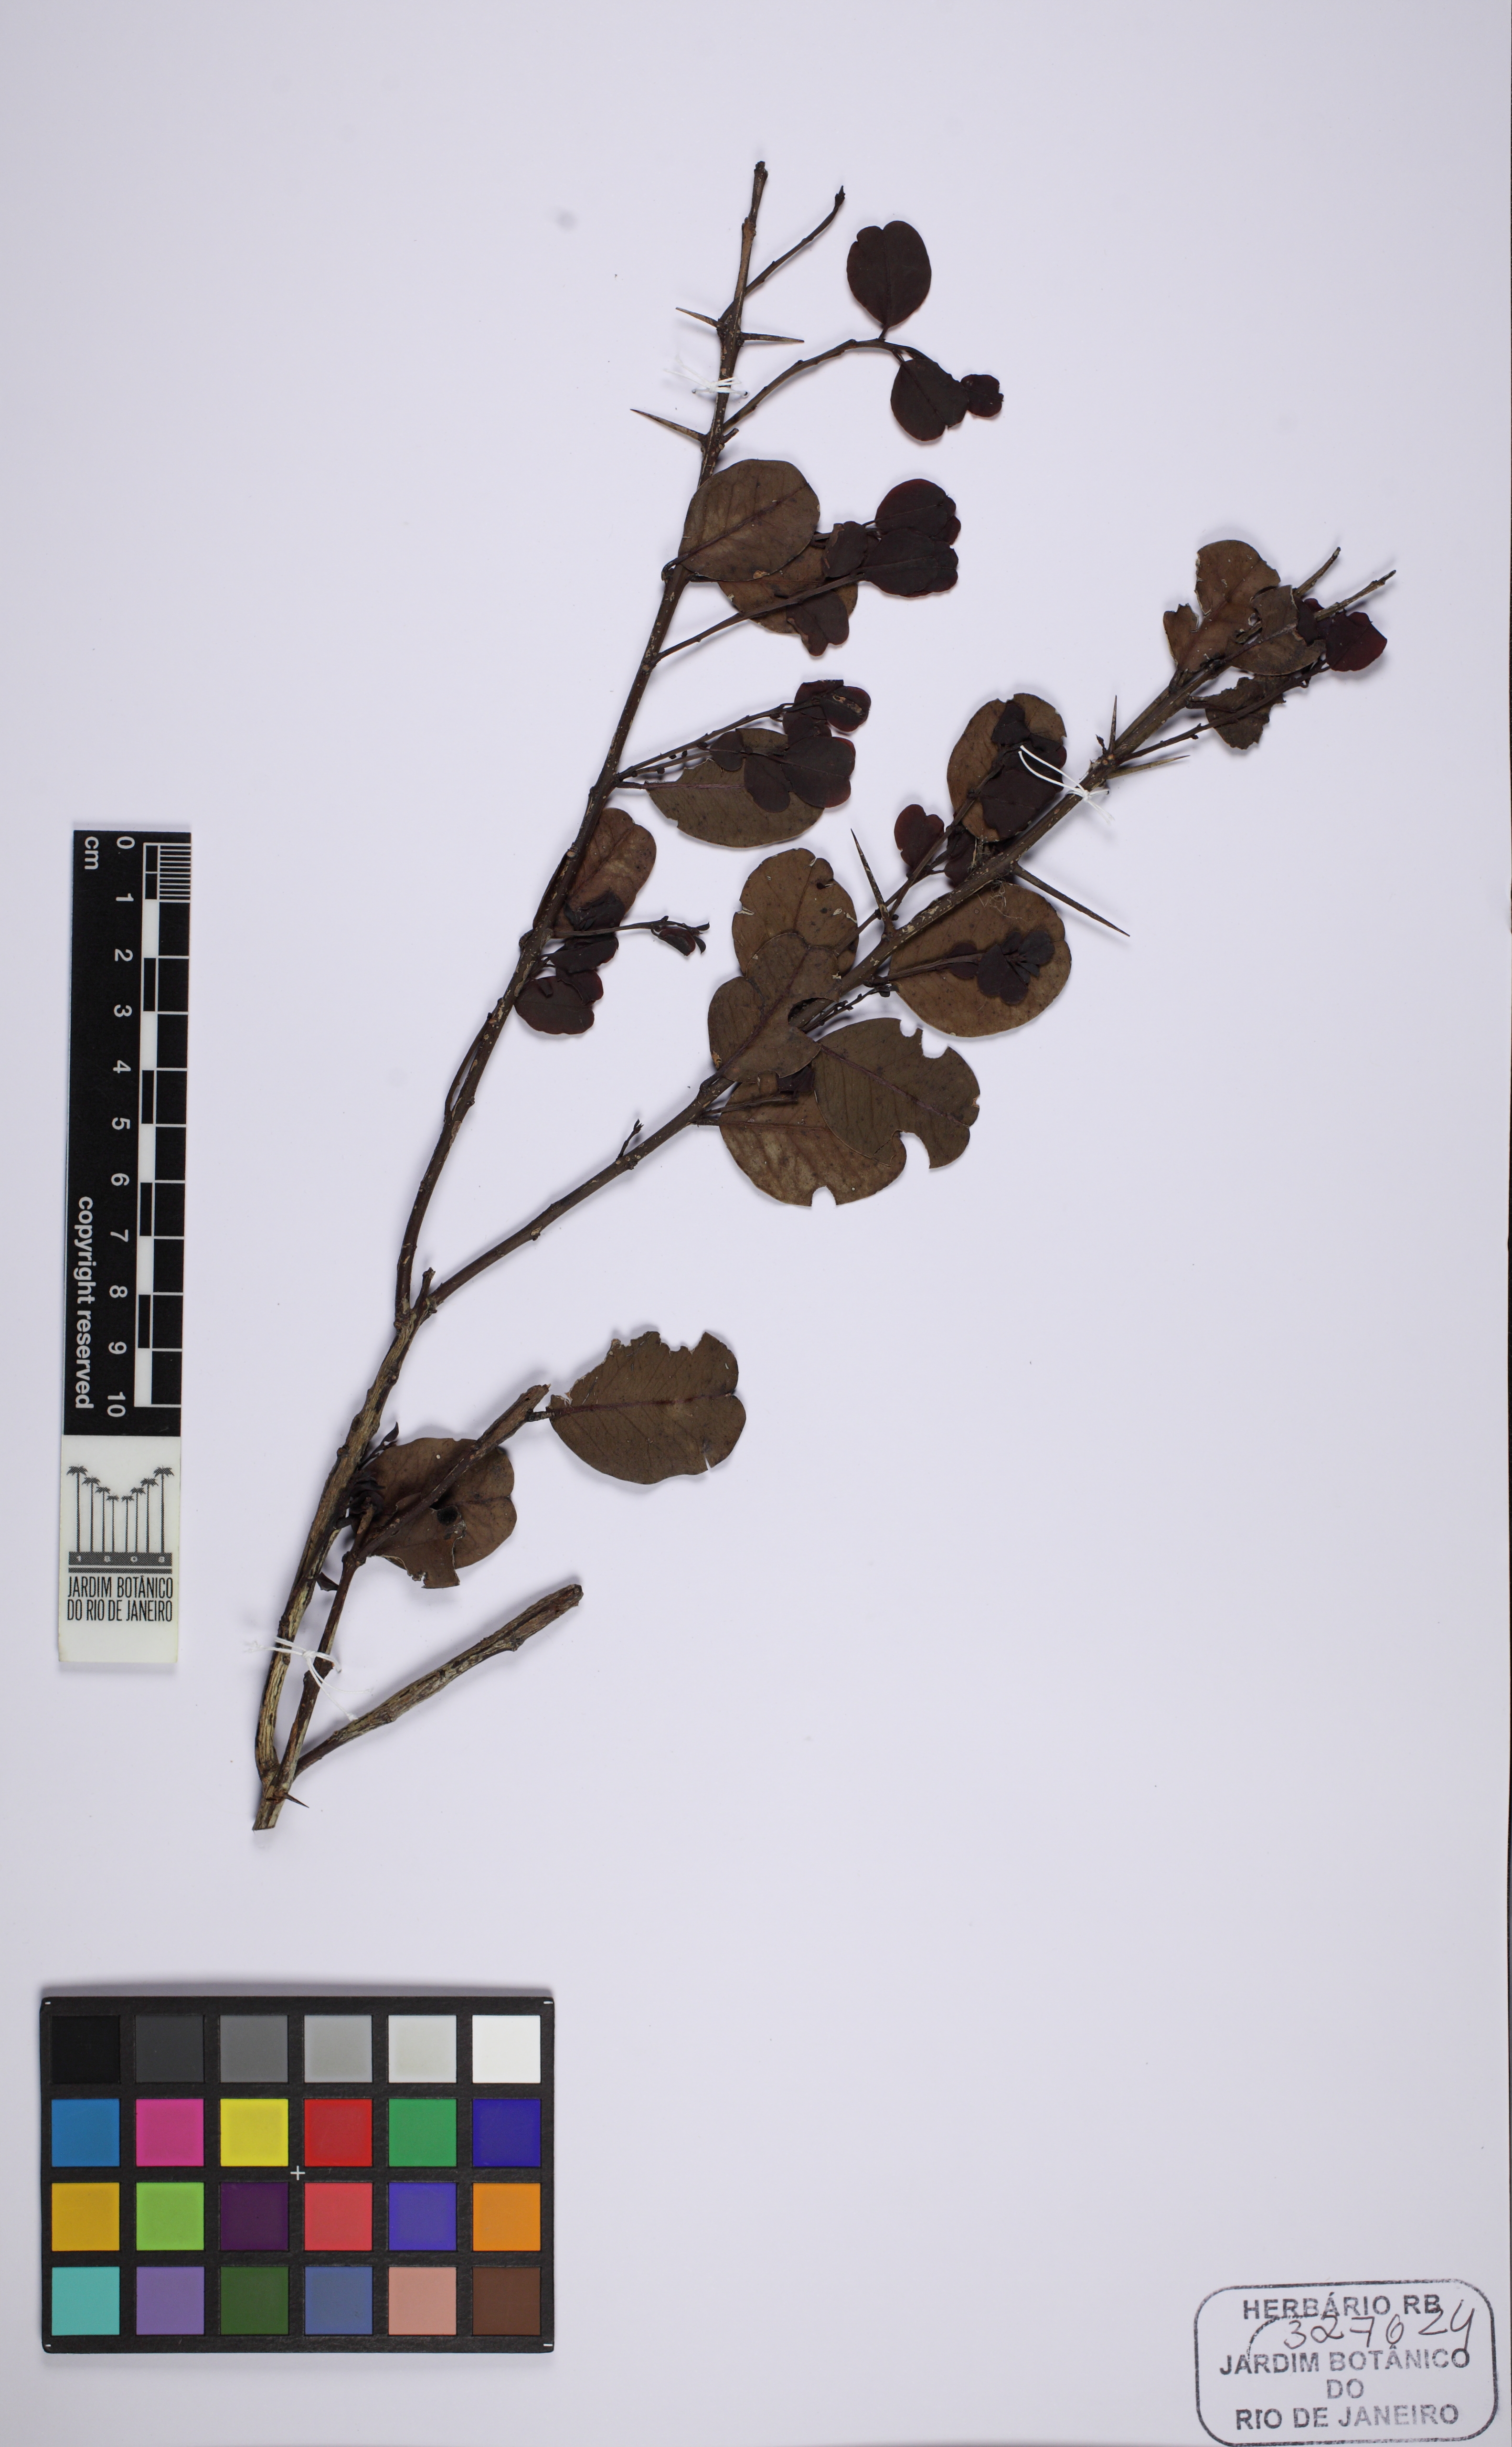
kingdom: Plantae
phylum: Tracheophyta
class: Magnoliopsida
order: Rosales
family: Rhamnaceae
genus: Scutia
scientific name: Scutia arenicola
